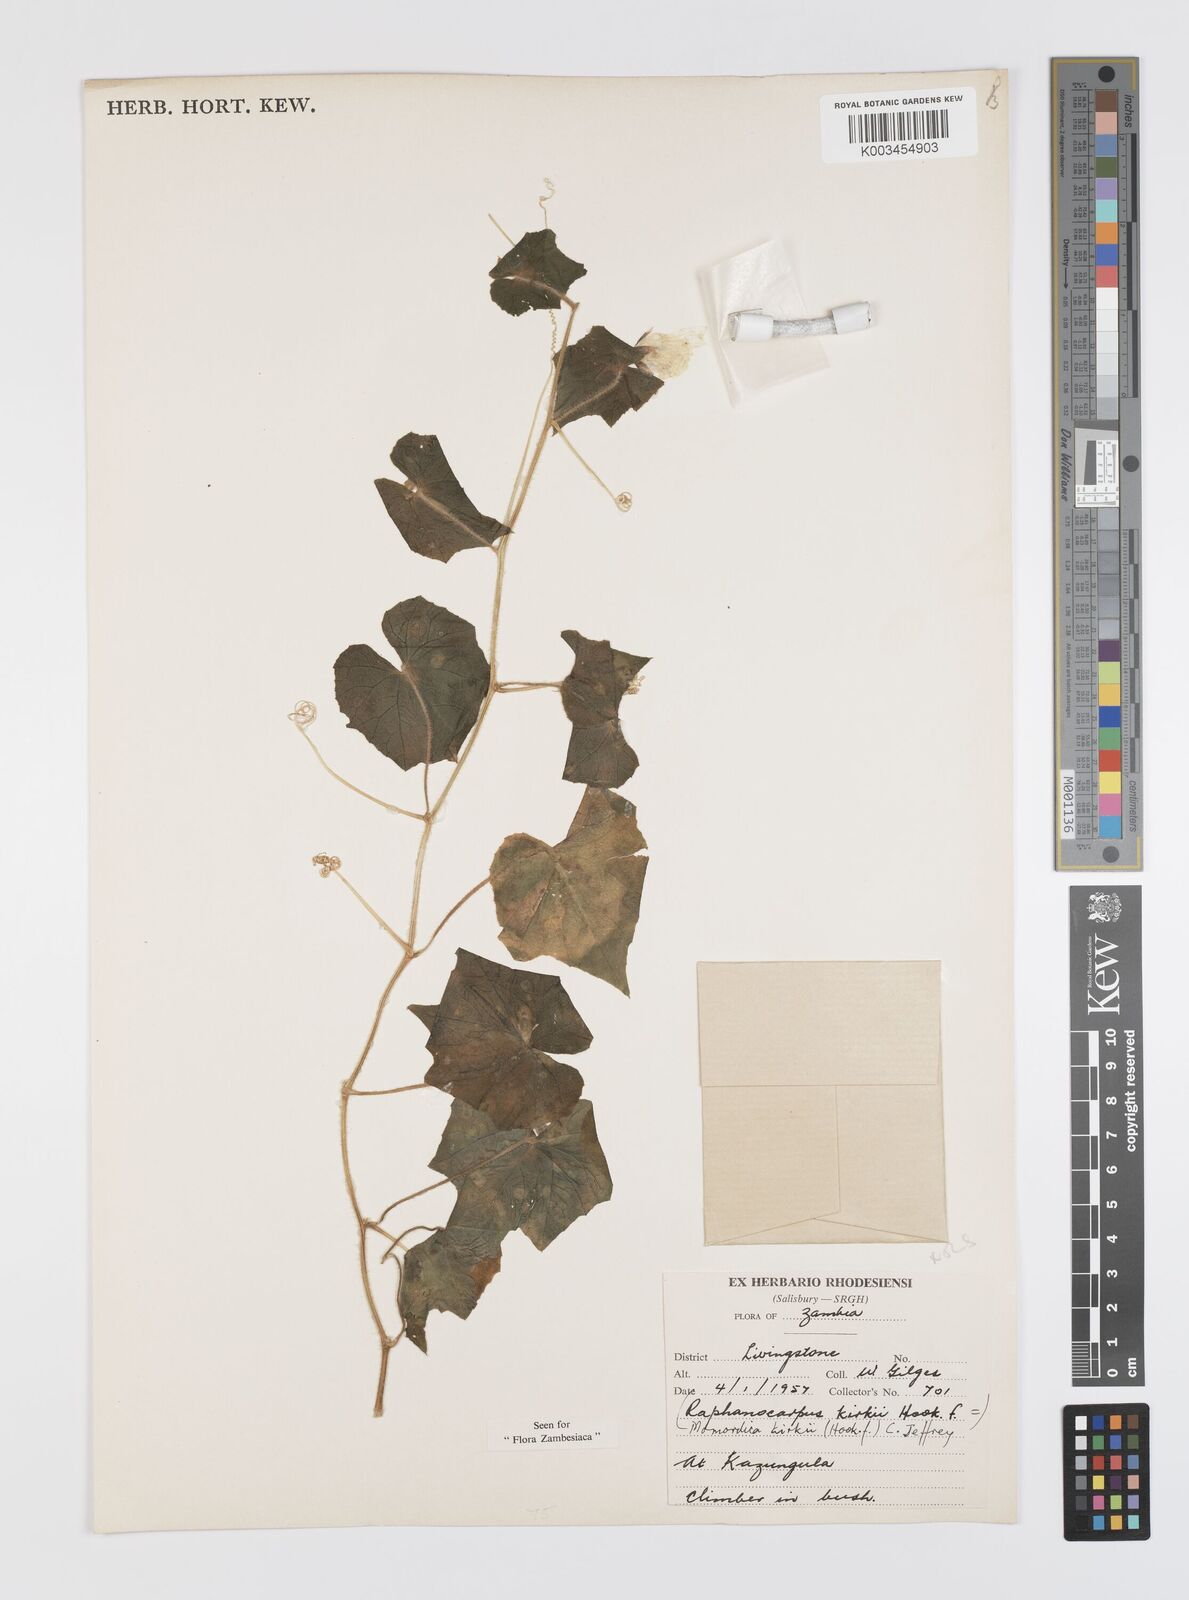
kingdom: Plantae
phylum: Tracheophyta
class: Magnoliopsida
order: Cucurbitales
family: Cucurbitaceae
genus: Momordica
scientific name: Momordica kirkii
